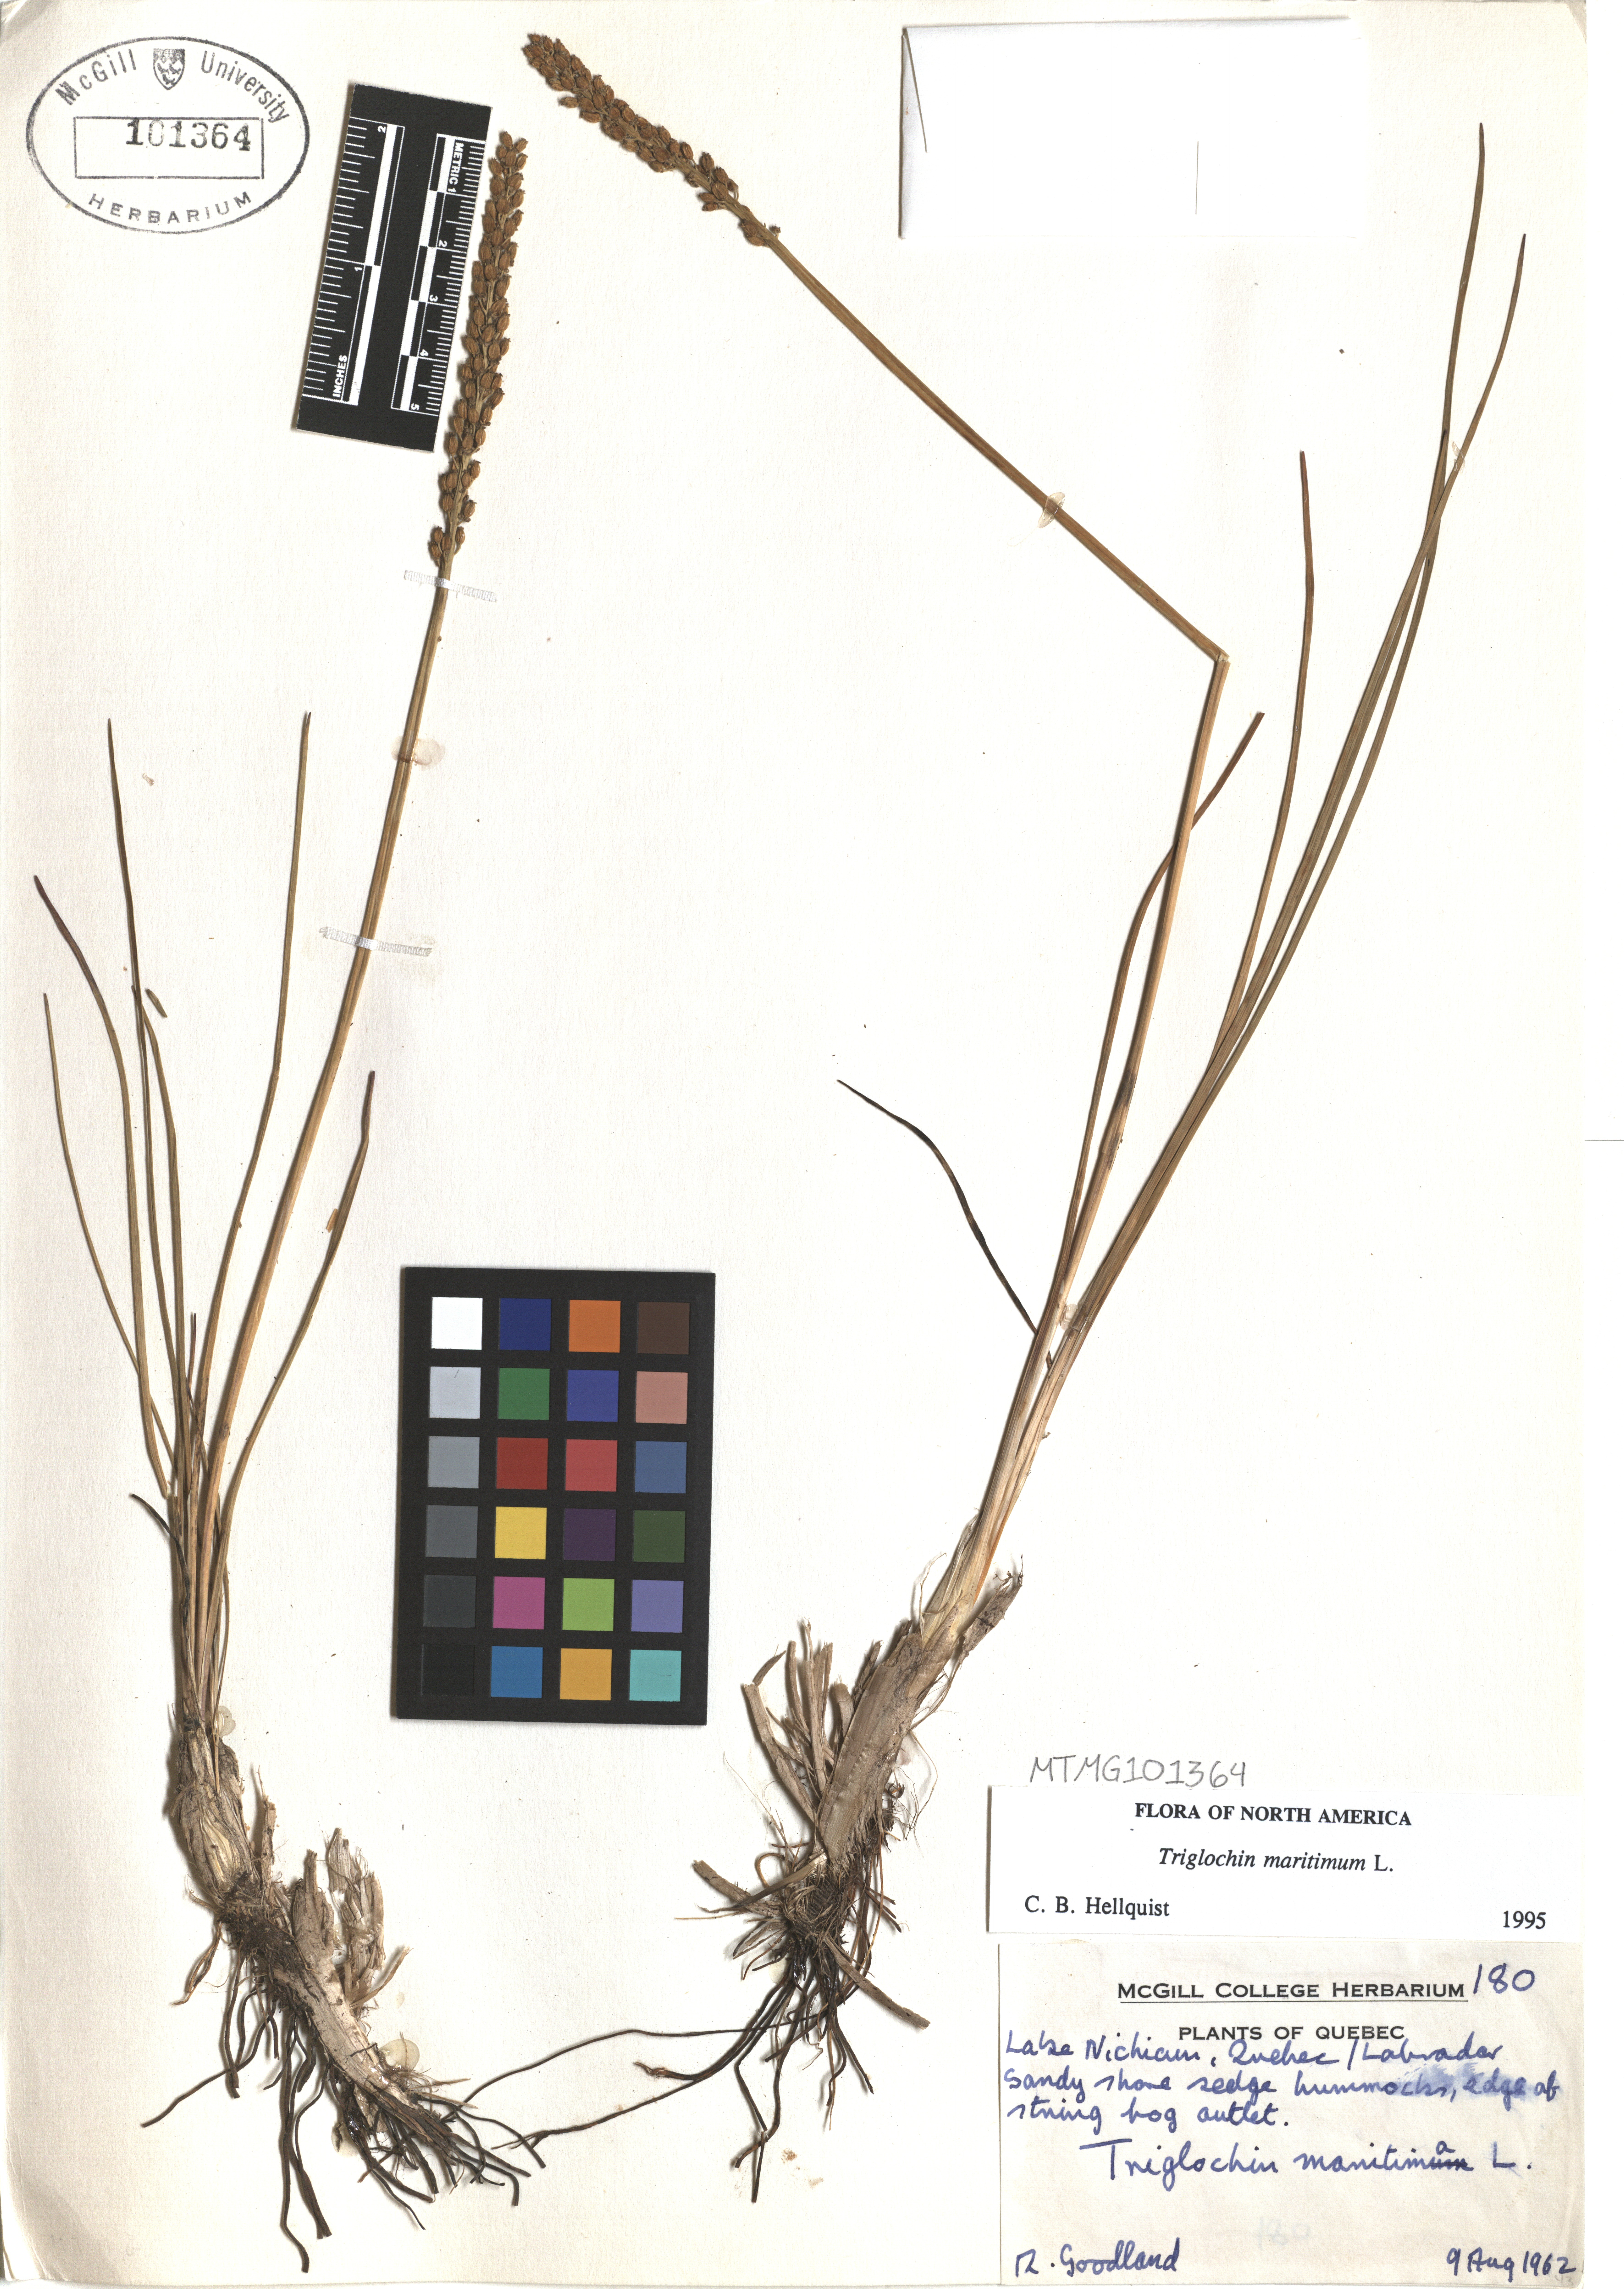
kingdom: Plantae
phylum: Tracheophyta
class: Liliopsida
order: Alismatales
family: Juncaginaceae
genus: Triglochin
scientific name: Triglochin maritima
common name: Sea arrowgrass
